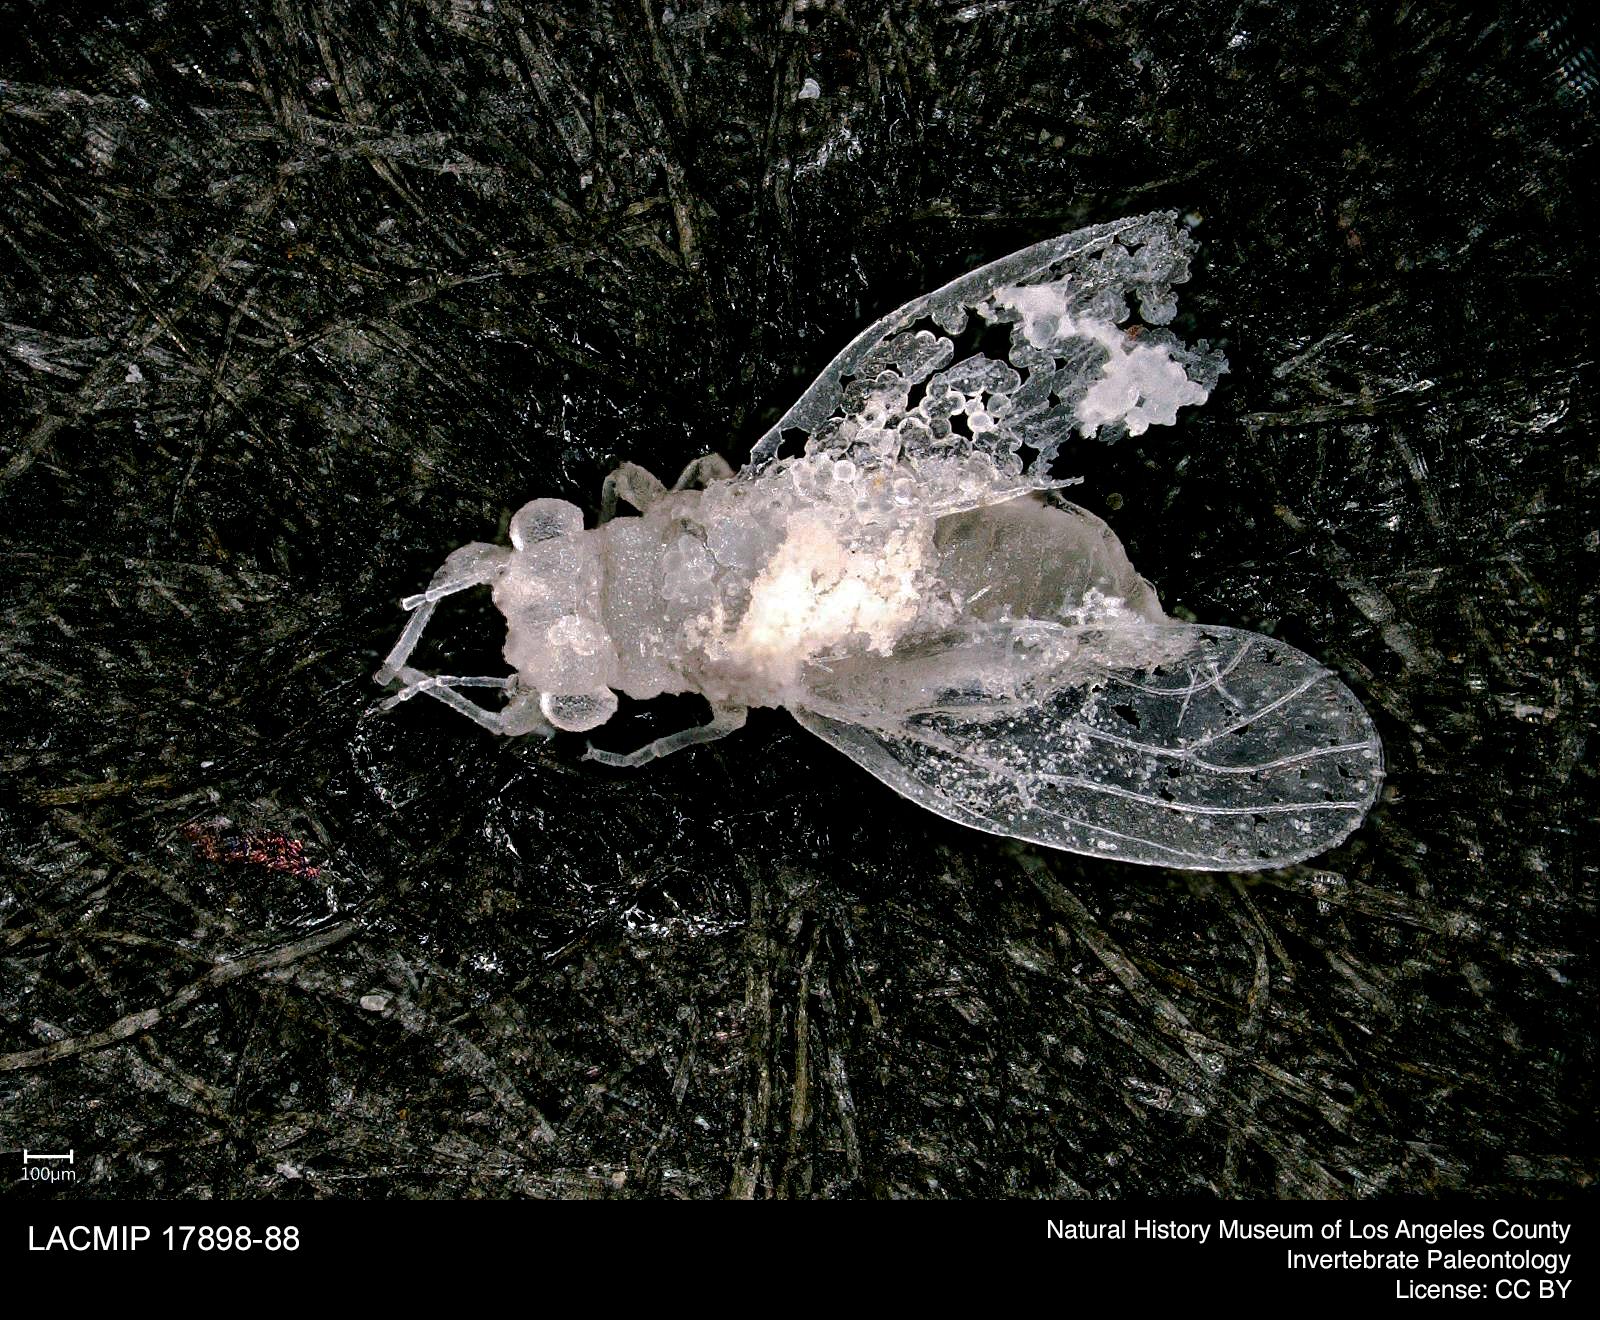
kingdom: Animalia
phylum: Arthropoda
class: Insecta
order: Hemiptera
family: Psyllidae
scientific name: Psyllidae
